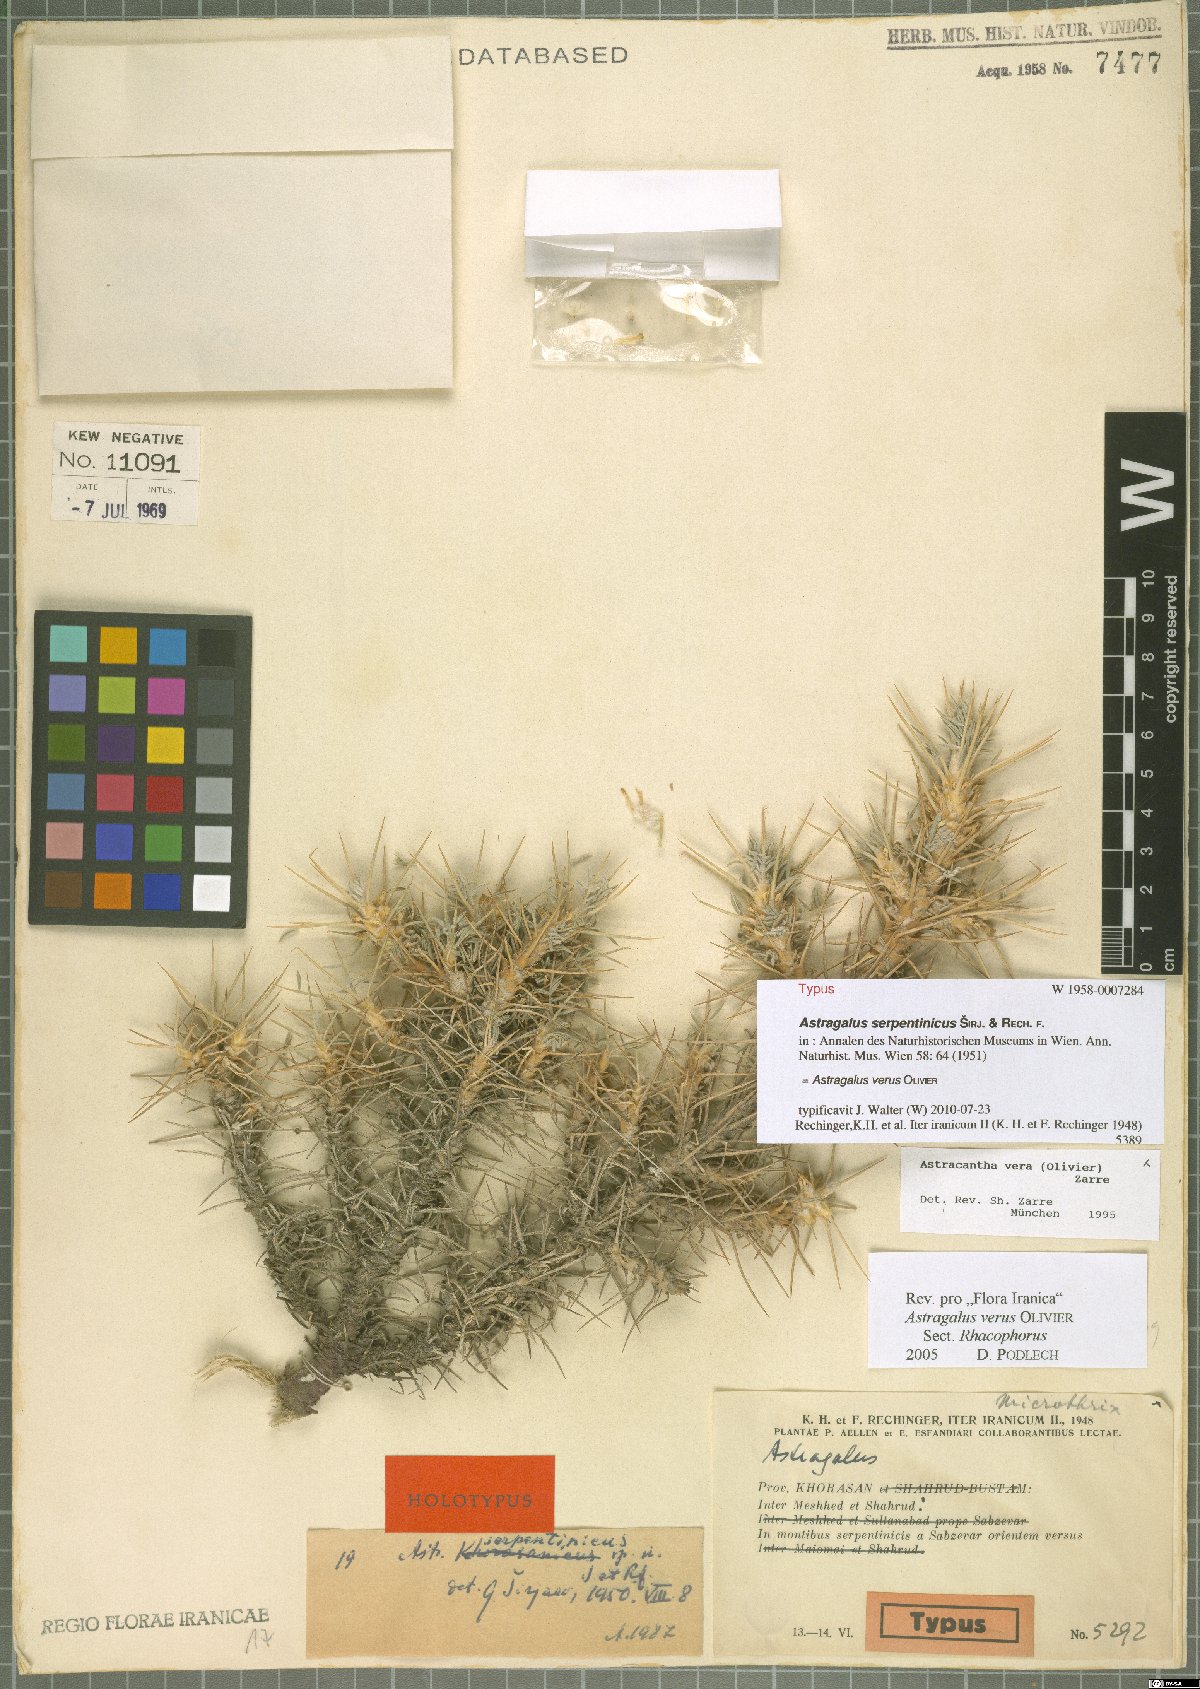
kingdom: Plantae
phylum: Tracheophyta
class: Magnoliopsida
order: Fabales
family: Fabaceae
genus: Astragalus
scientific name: Astragalus verus
